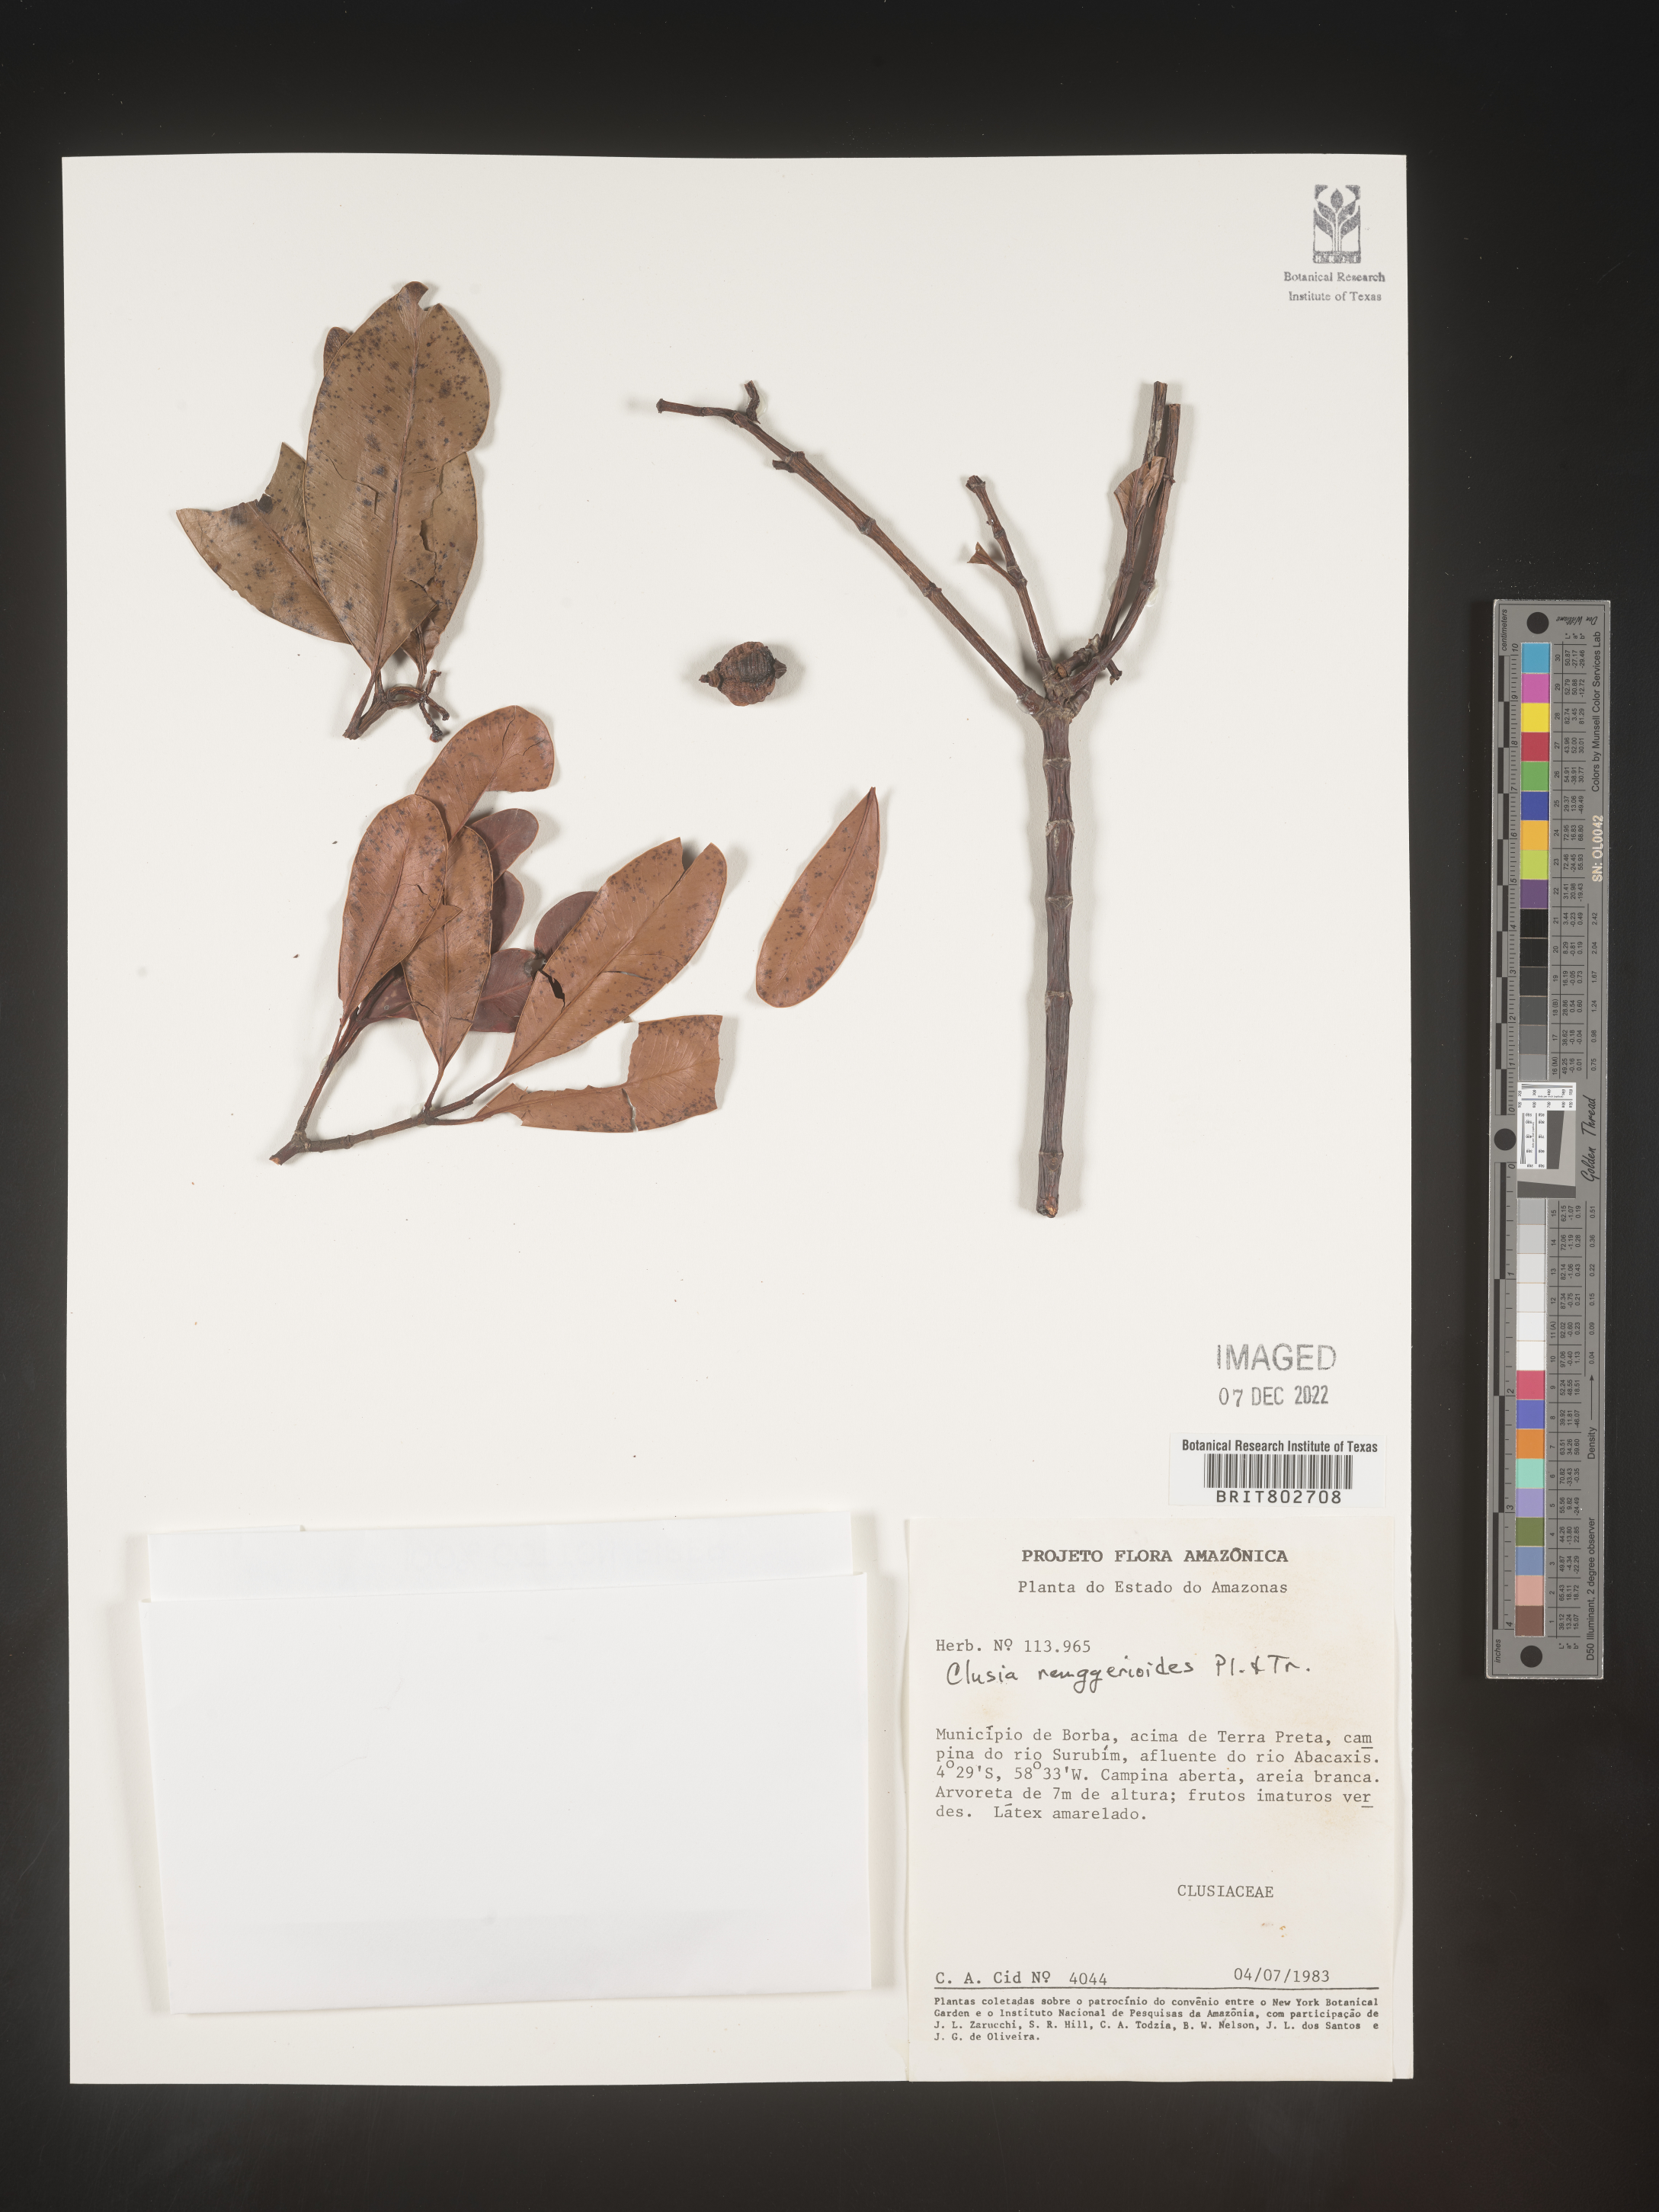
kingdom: Plantae
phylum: Tracheophyta
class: Magnoliopsida
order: Malpighiales
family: Clusiaceae
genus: Clusia
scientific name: Clusia renggerioides
